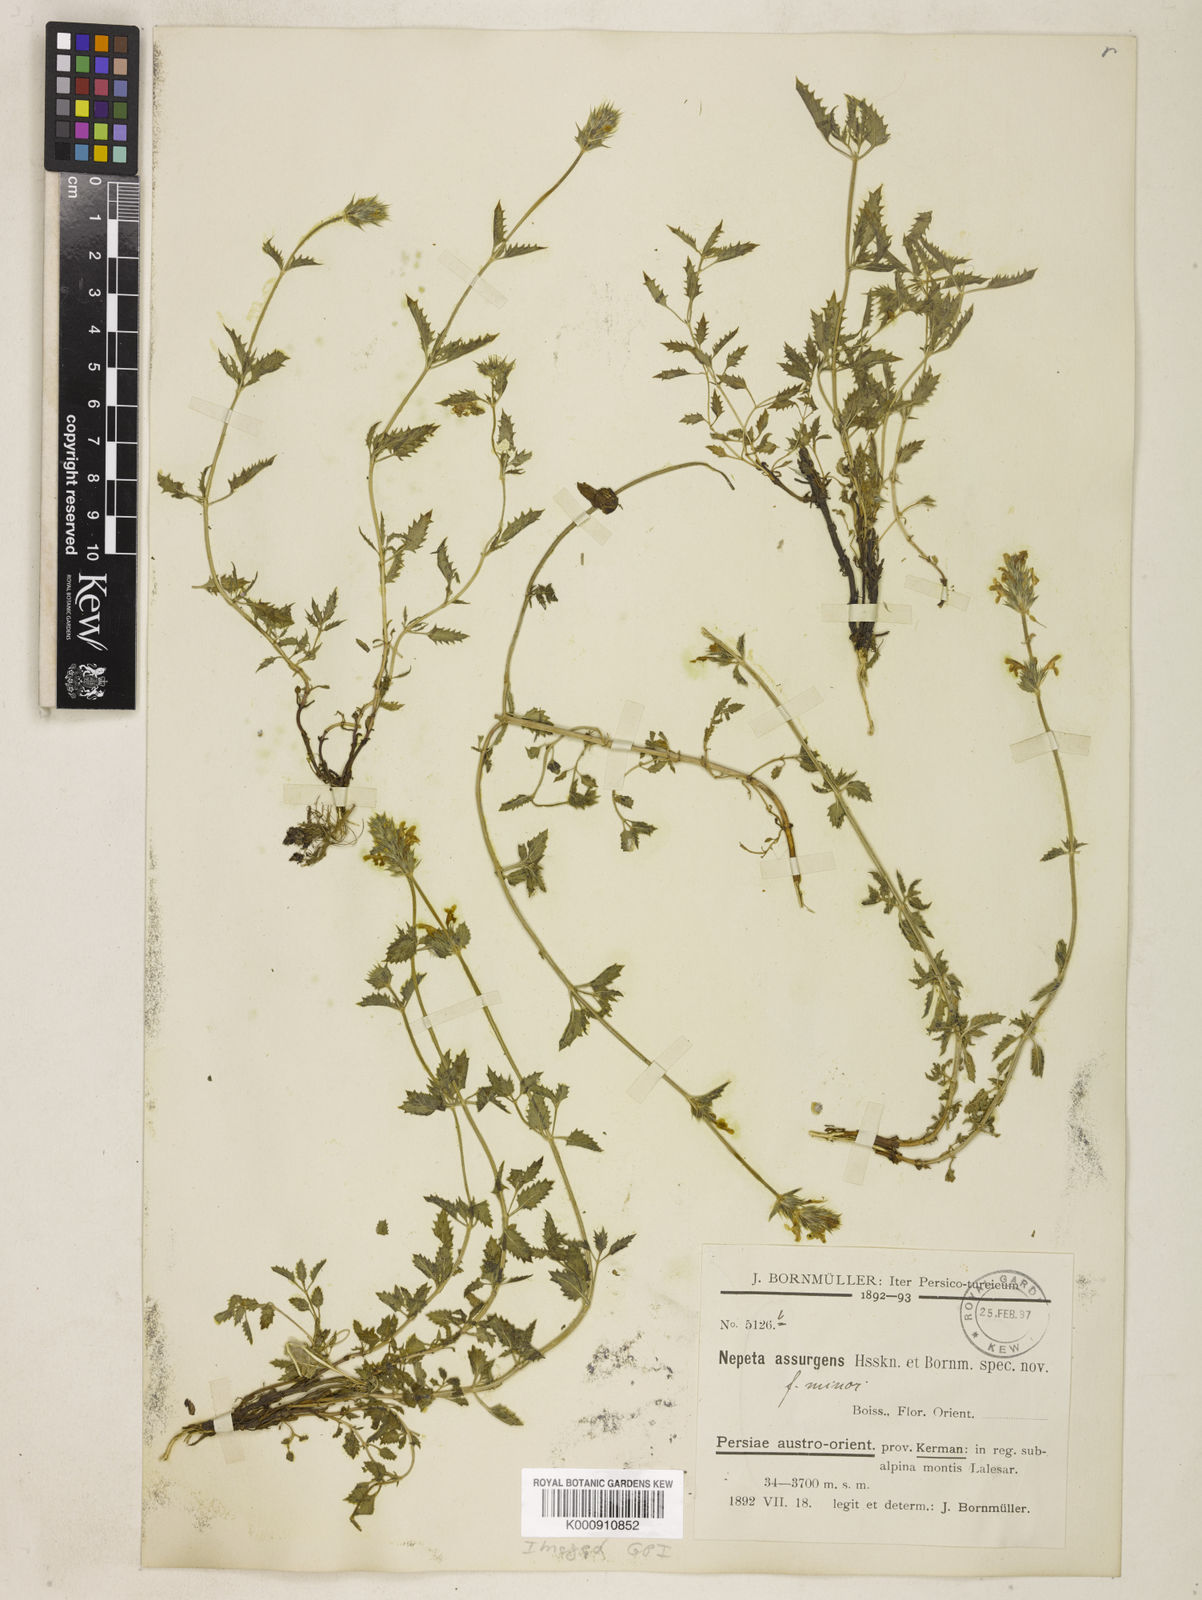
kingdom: Plantae
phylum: Tracheophyta
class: Magnoliopsida
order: Lamiales
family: Lamiaceae
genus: Nepeta
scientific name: Nepeta assurgens
